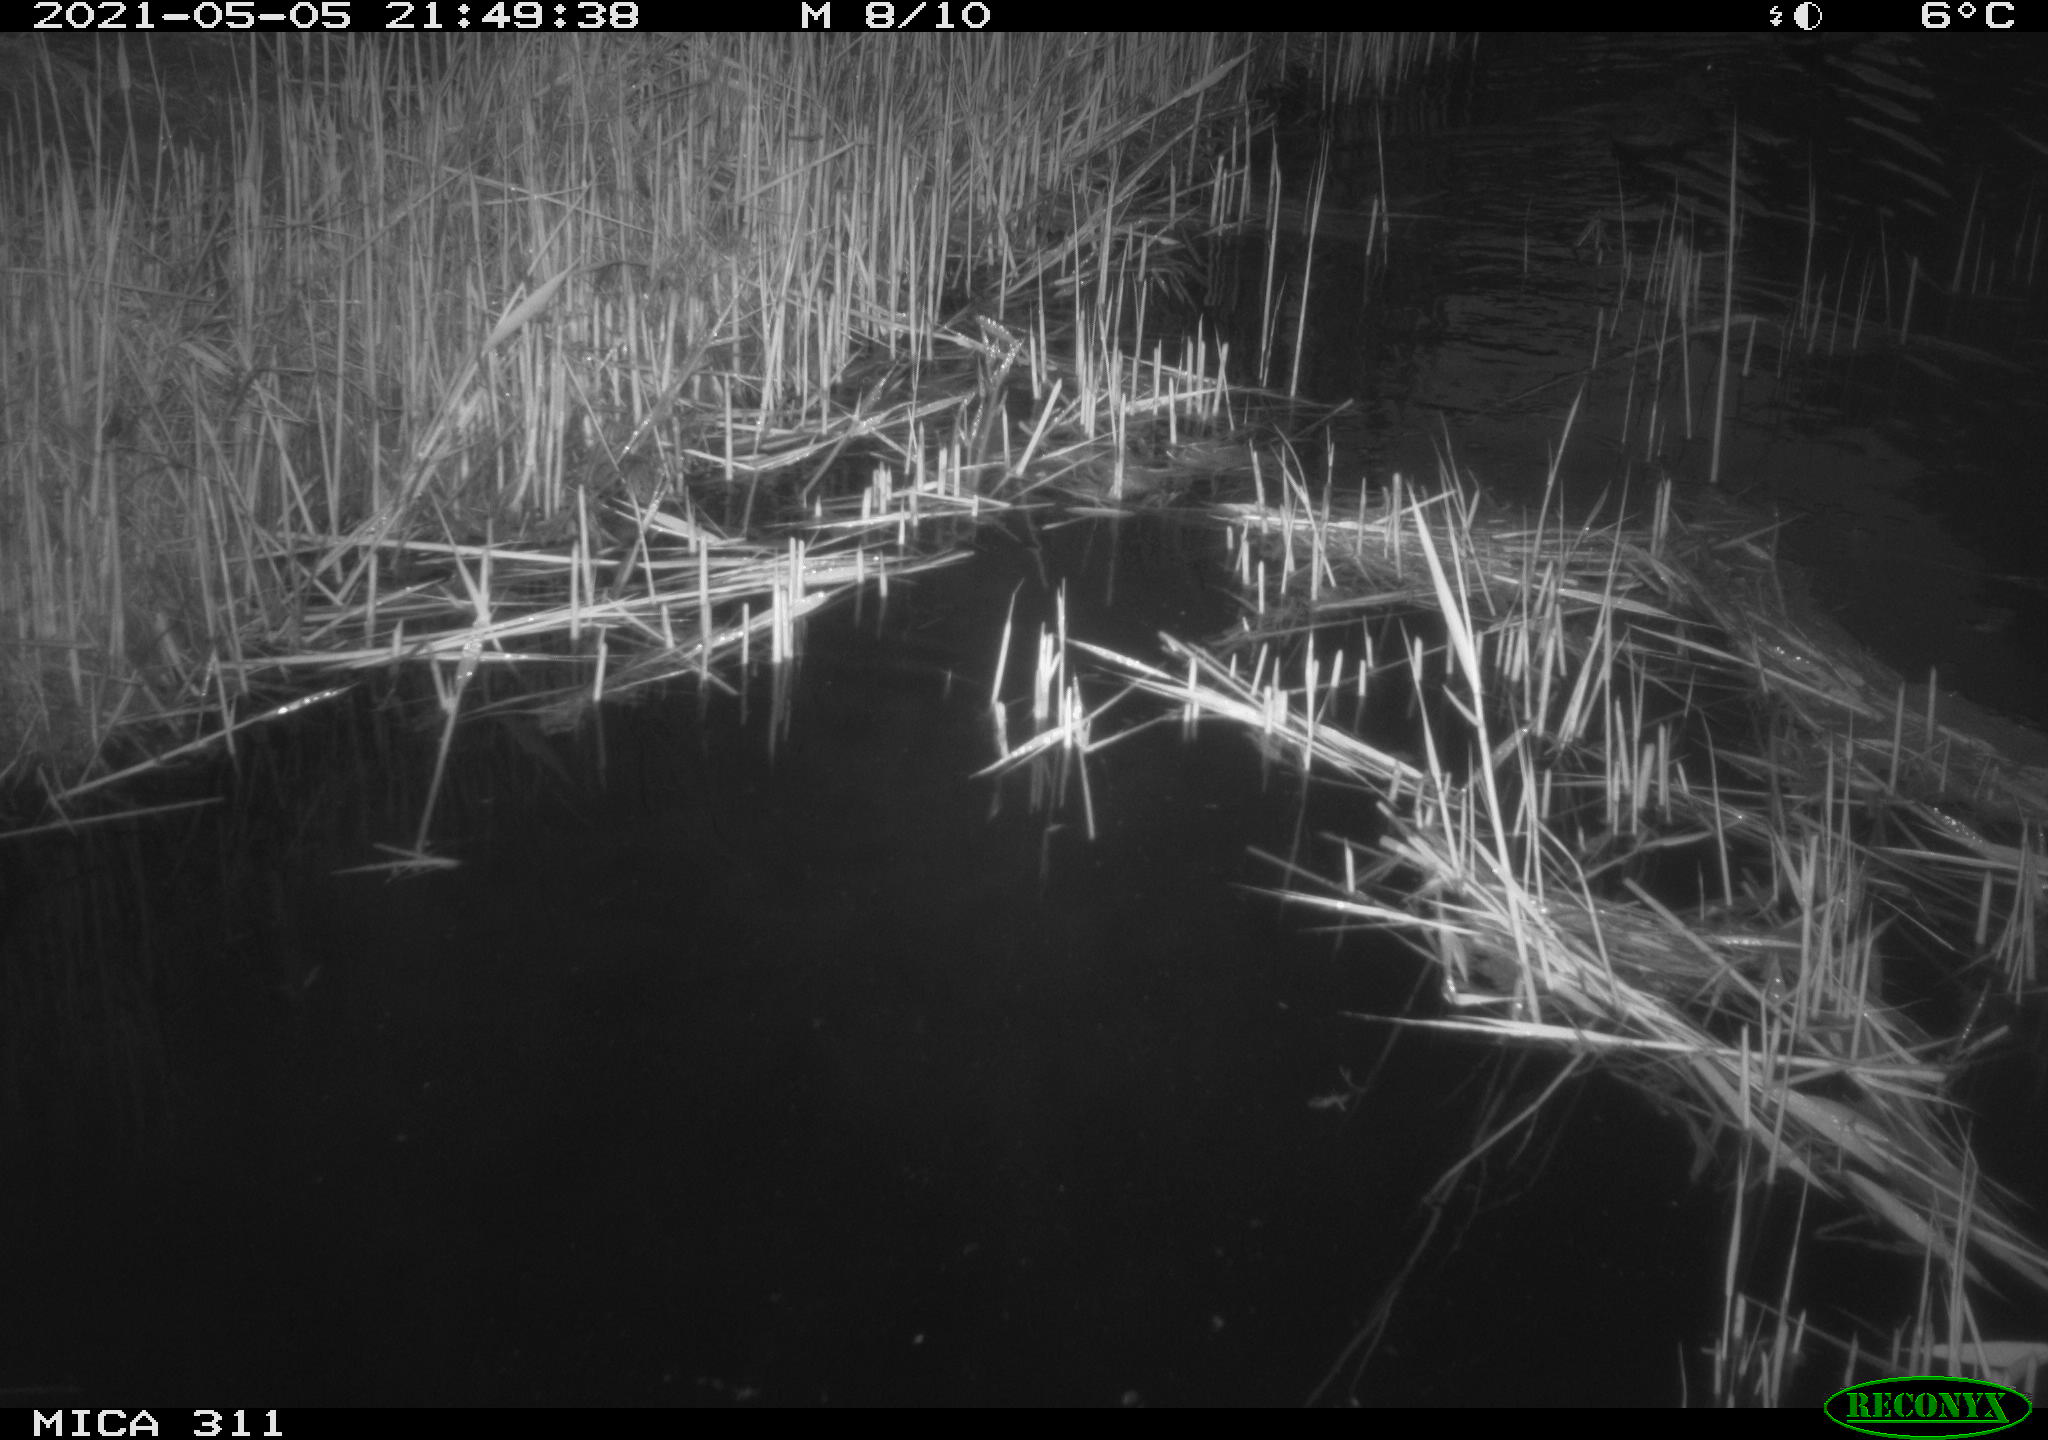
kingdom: Animalia
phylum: Chordata
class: Aves
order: Anseriformes
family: Anatidae
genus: Anas
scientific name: Anas
